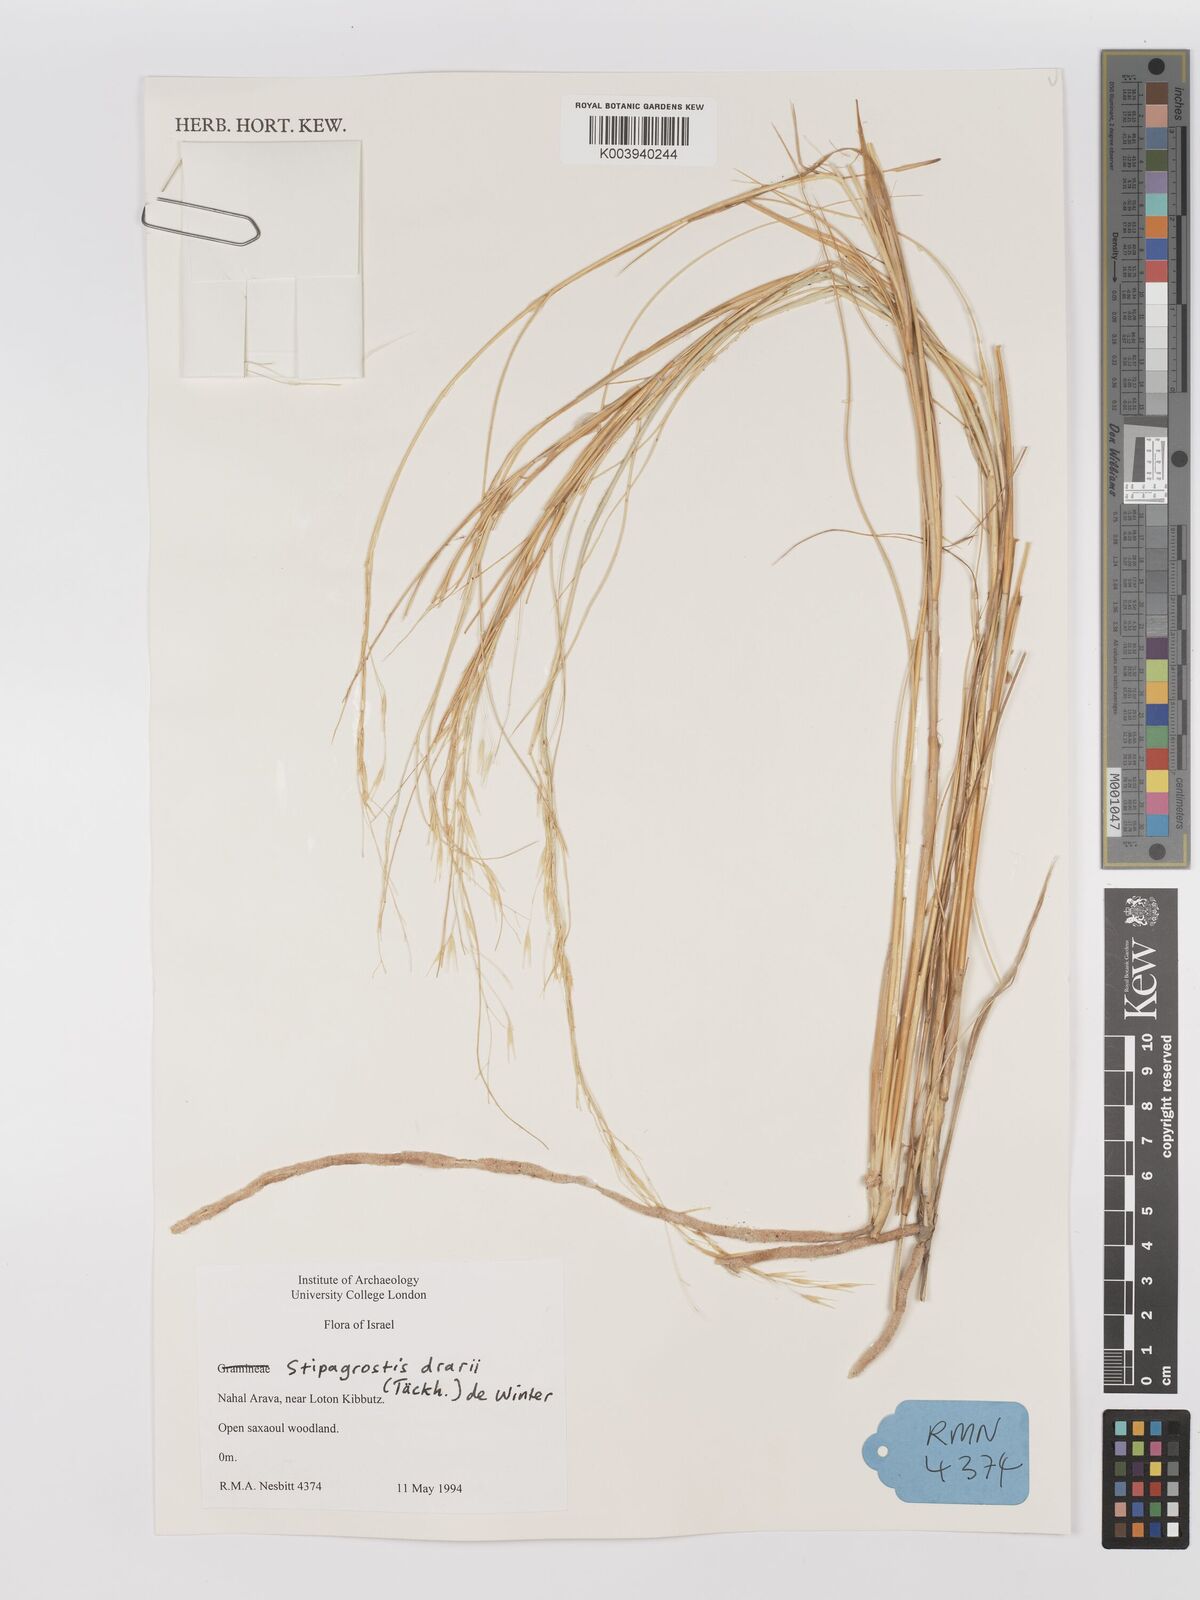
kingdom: Plantae
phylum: Tracheophyta
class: Liliopsida
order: Poales
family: Poaceae
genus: Stipagrostis
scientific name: Stipagrostis drarii
